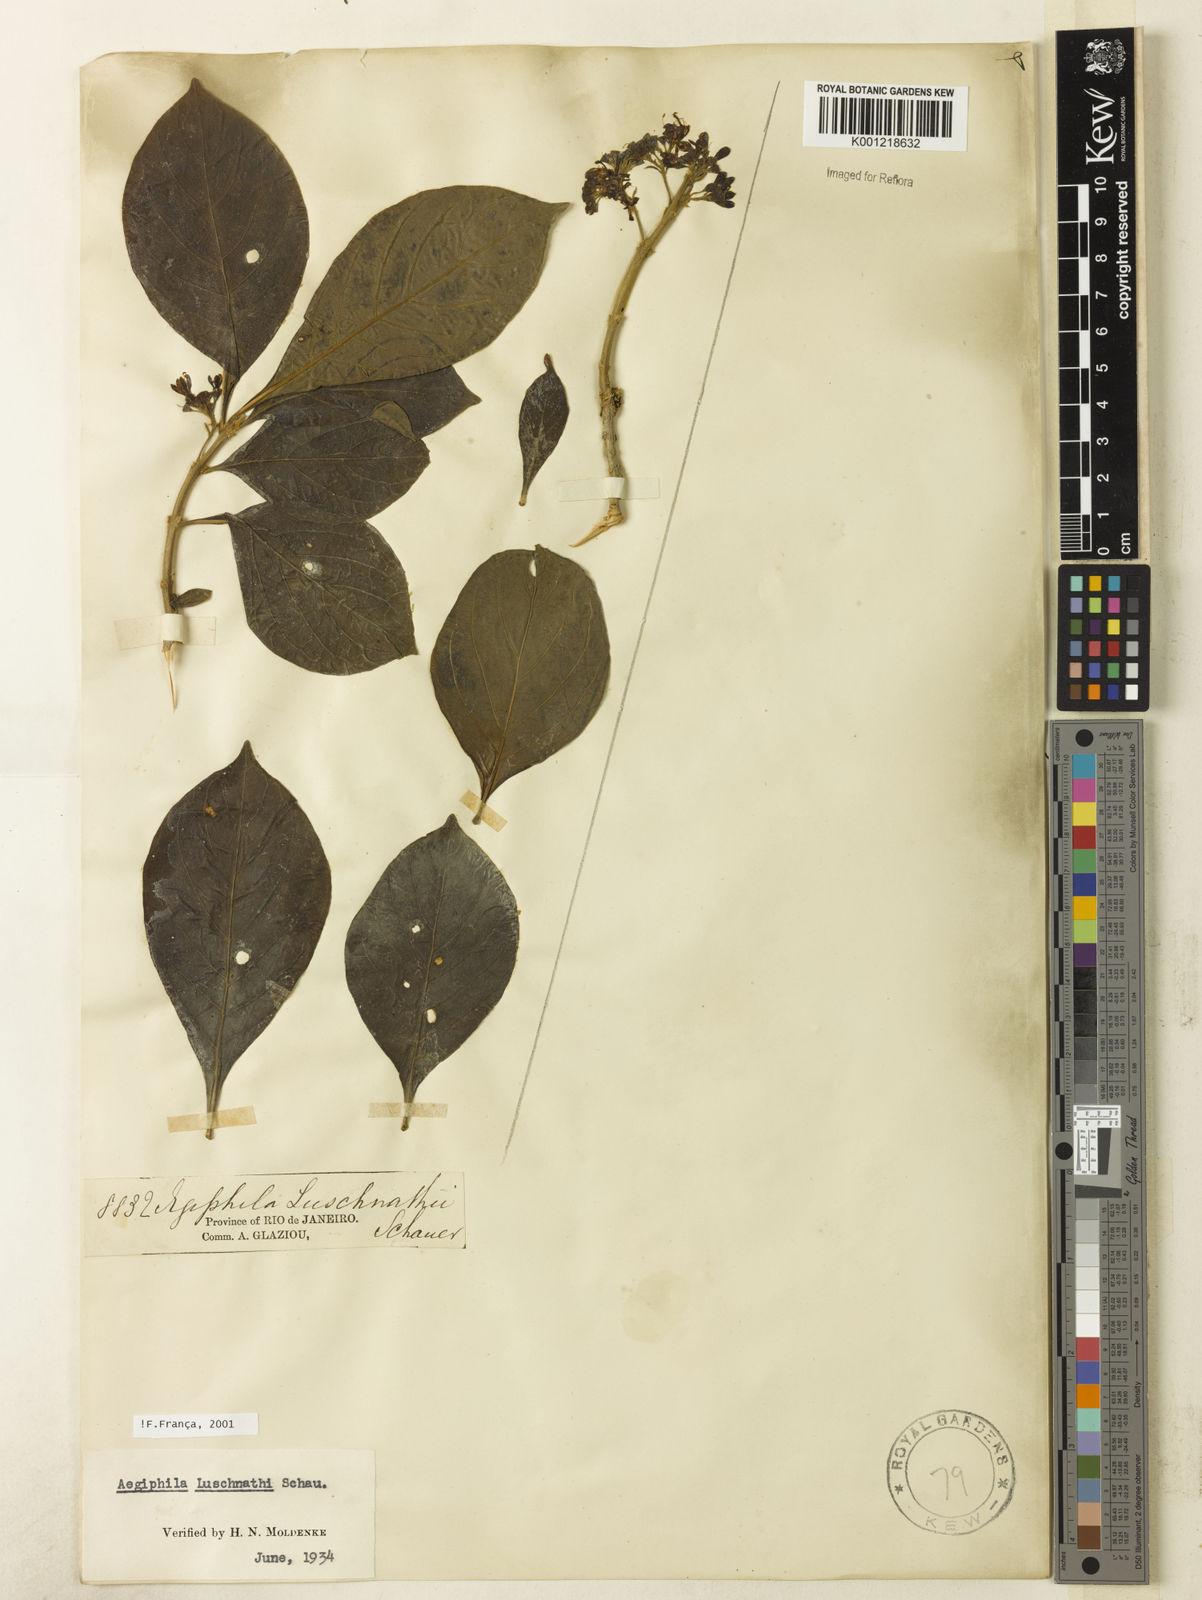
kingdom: Plantae
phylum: Tracheophyta
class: Magnoliopsida
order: Lamiales
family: Lamiaceae
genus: Aegiphila
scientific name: Aegiphila luschnathii
